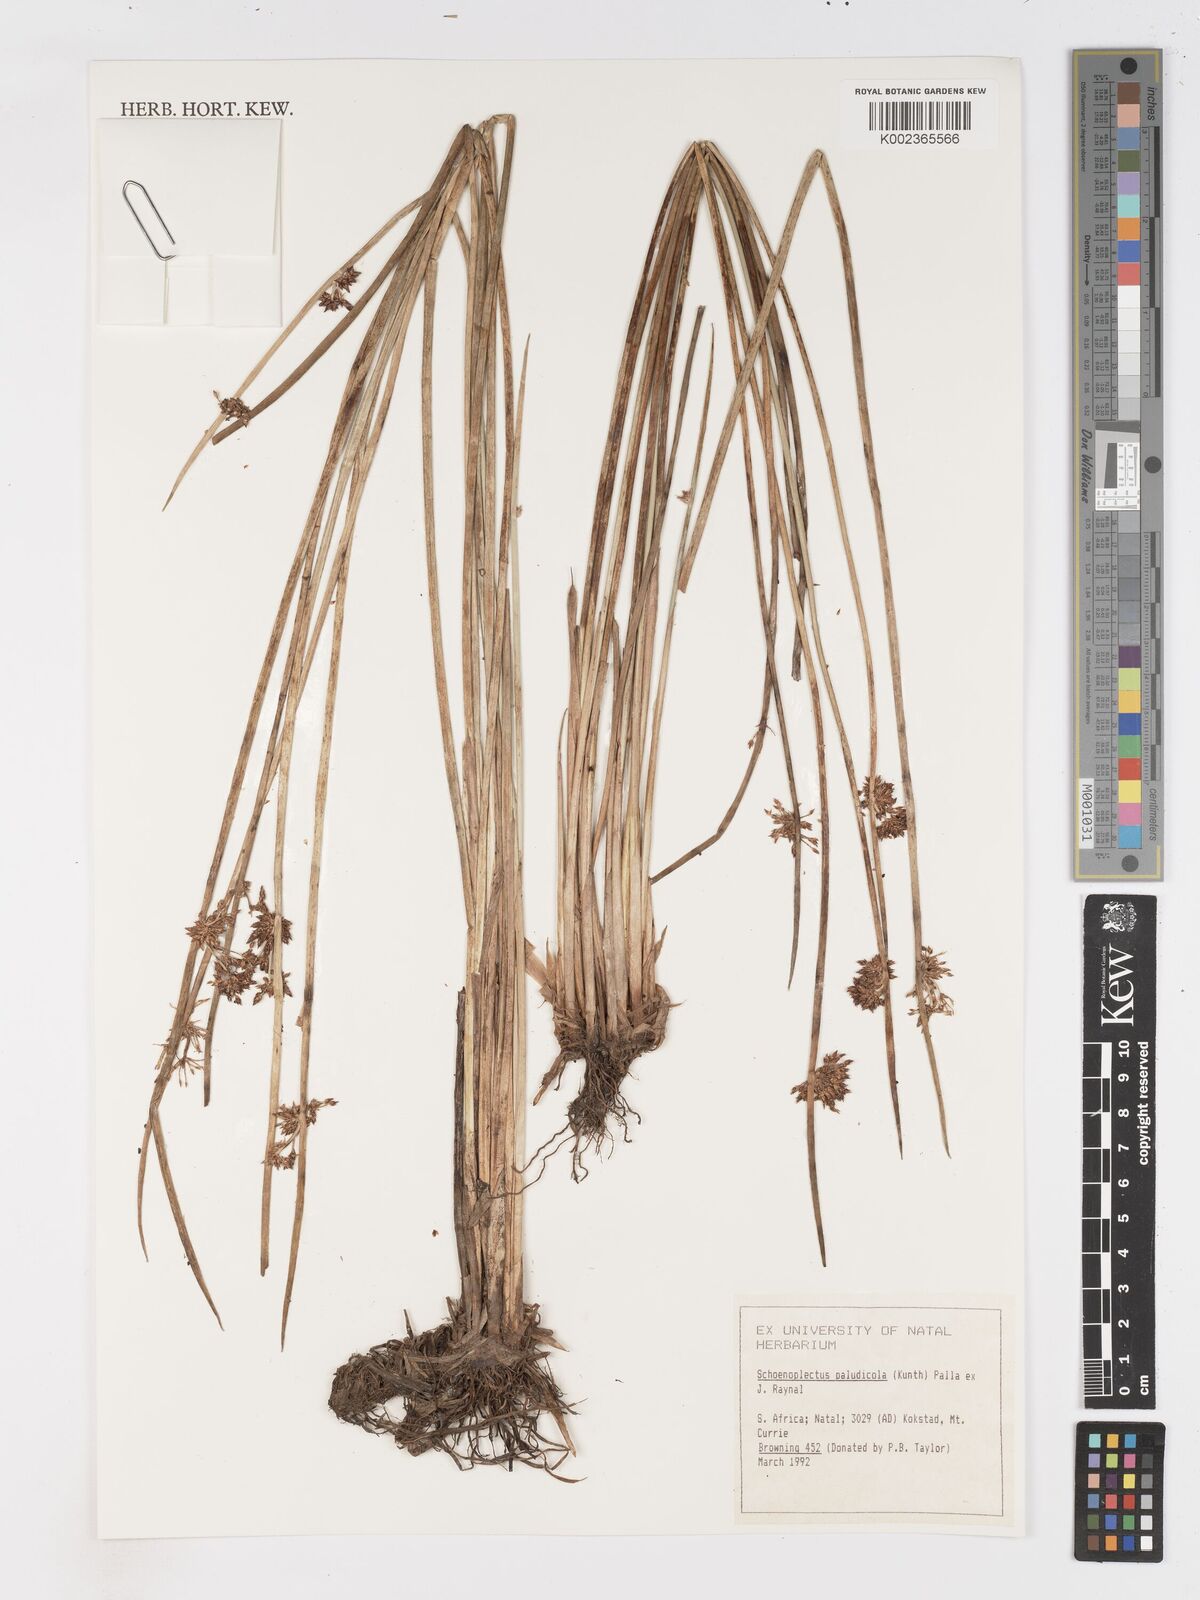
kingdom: Plantae
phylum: Tracheophyta
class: Liliopsida
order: Poales
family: Cyperaceae
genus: Schoenoplectiella
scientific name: Schoenoplectiella paludicola
